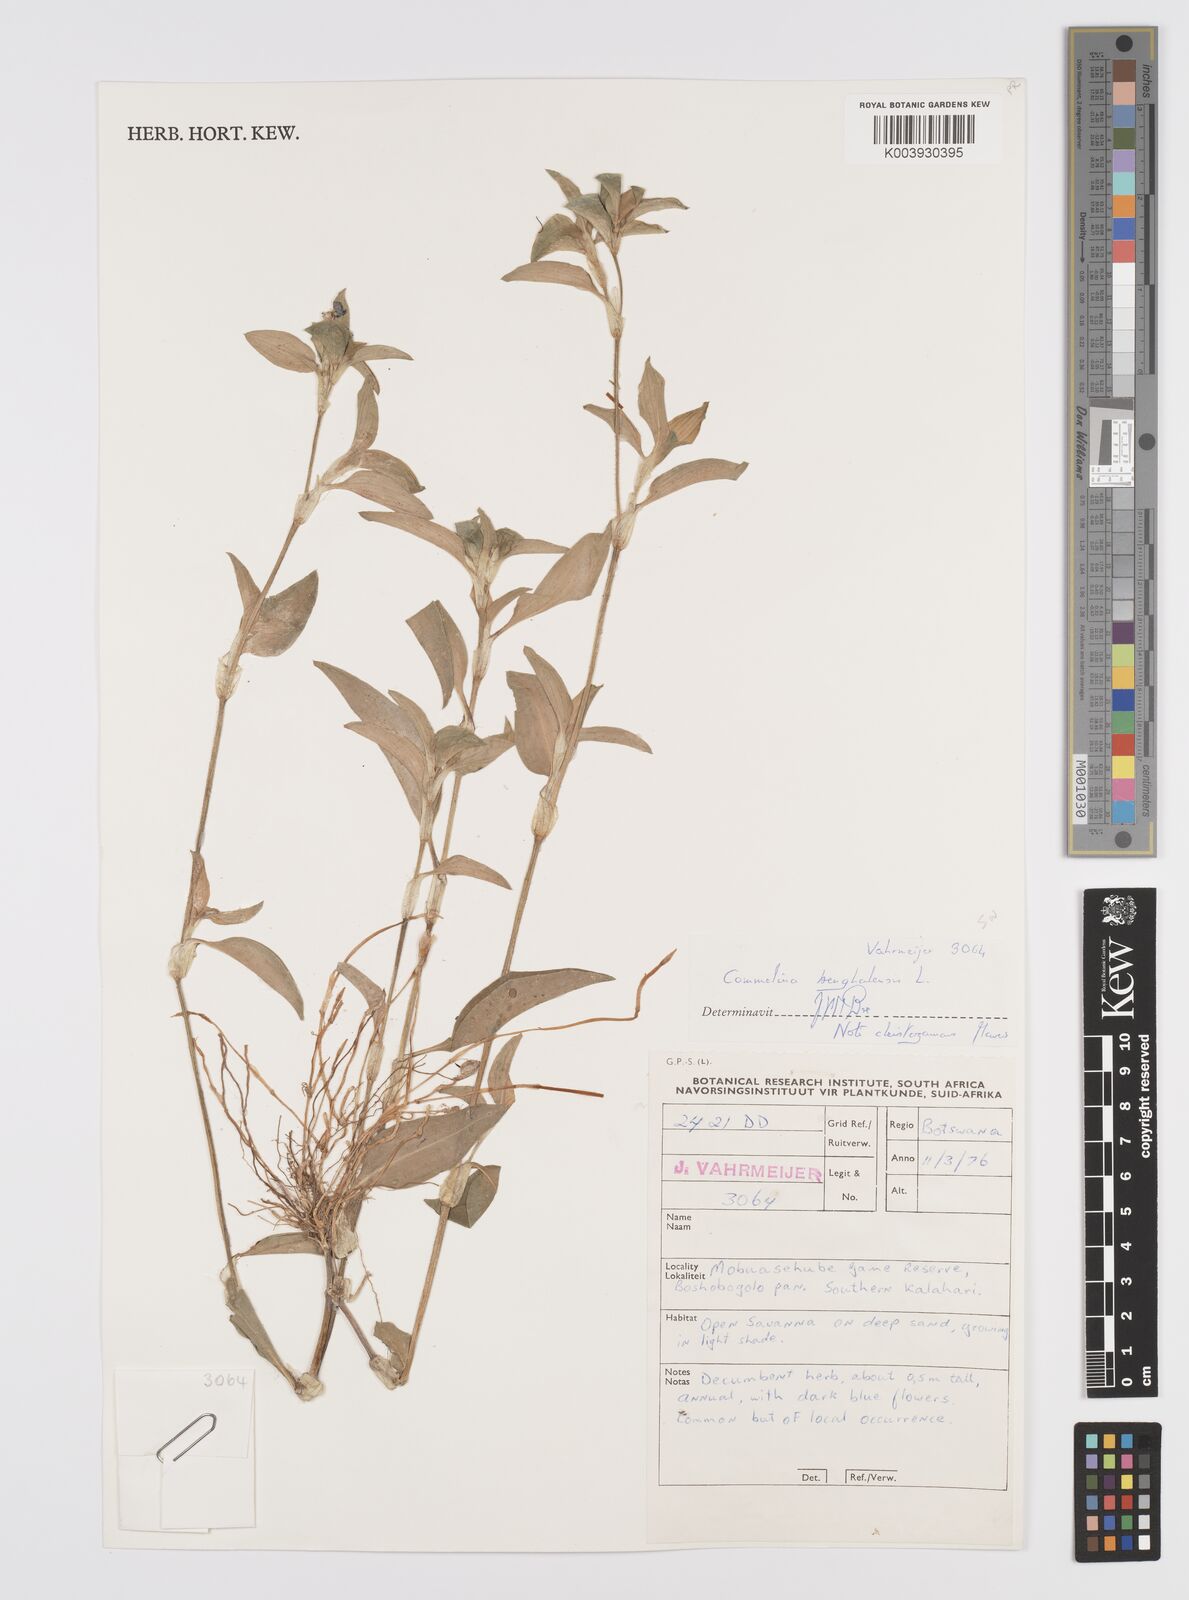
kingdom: Plantae
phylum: Tracheophyta
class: Liliopsida
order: Commelinales
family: Commelinaceae
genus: Commelina
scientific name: Commelina benghalensis
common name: Jio
